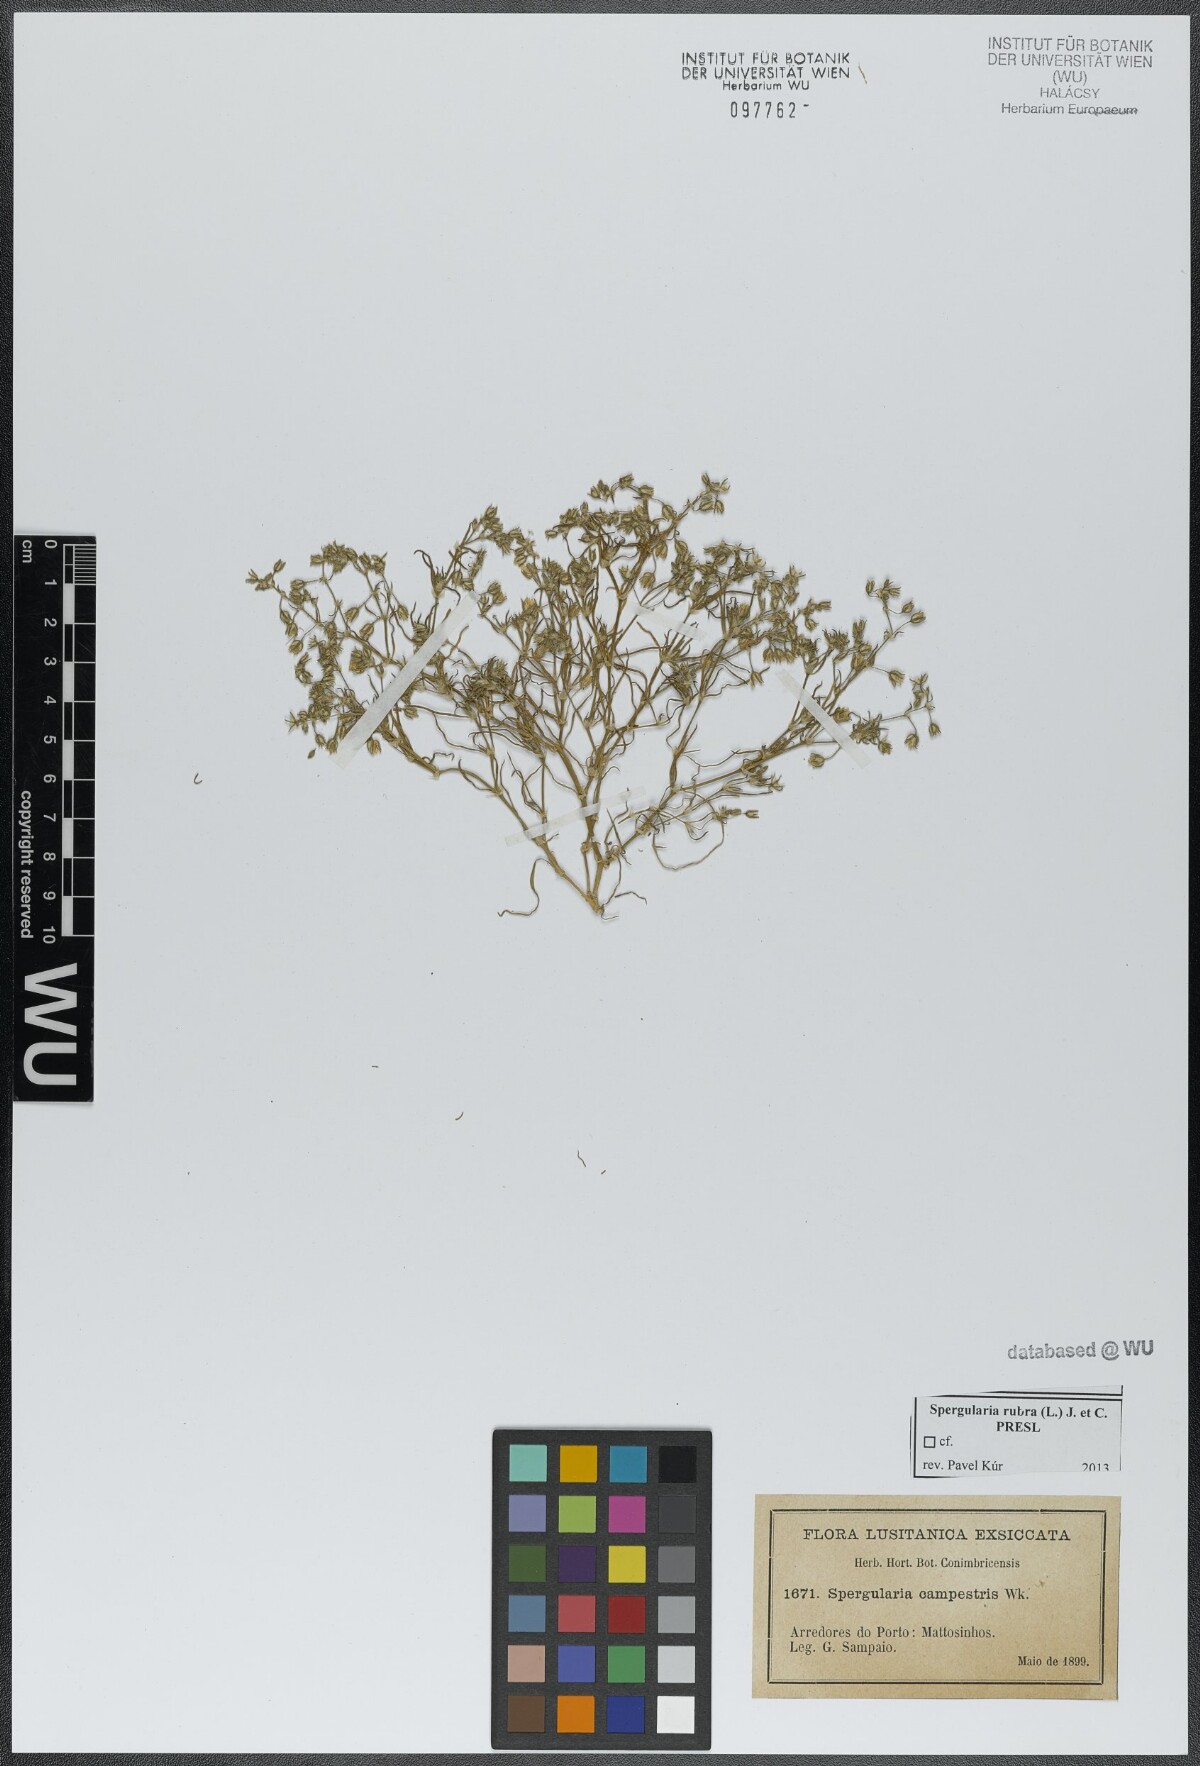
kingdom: Plantae
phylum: Tracheophyta
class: Magnoliopsida
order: Caryophyllales
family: Caryophyllaceae
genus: Spergularia
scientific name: Spergularia rubra
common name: Red sand-spurrey
